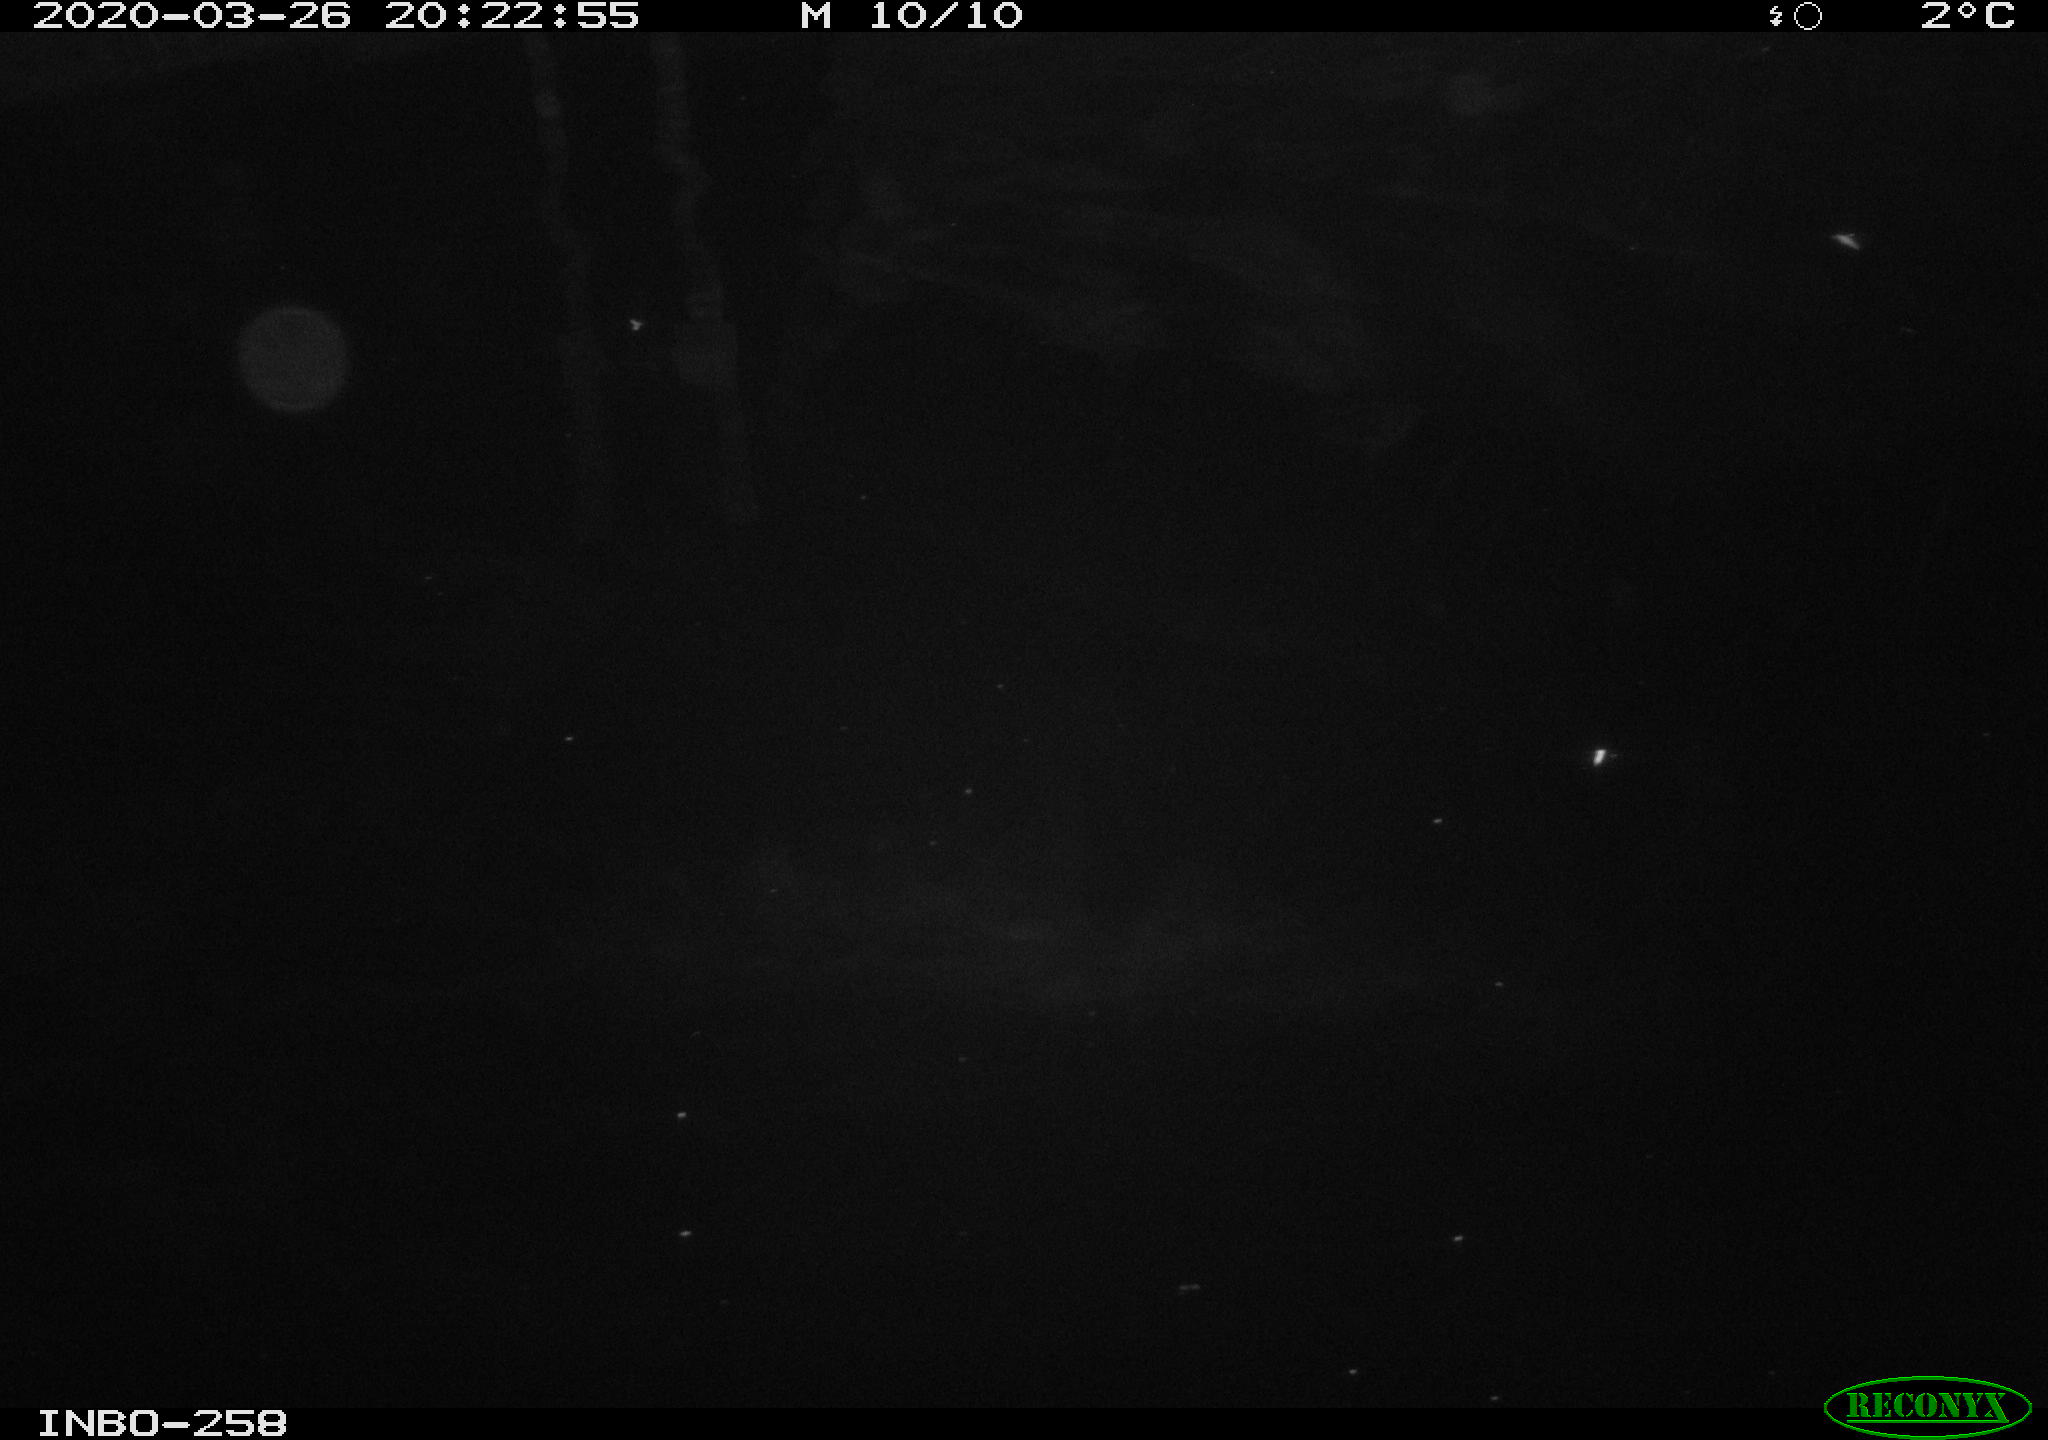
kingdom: Animalia
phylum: Chordata
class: Aves
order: Anseriformes
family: Anatidae
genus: Anas
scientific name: Anas platyrhynchos
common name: Mallard
